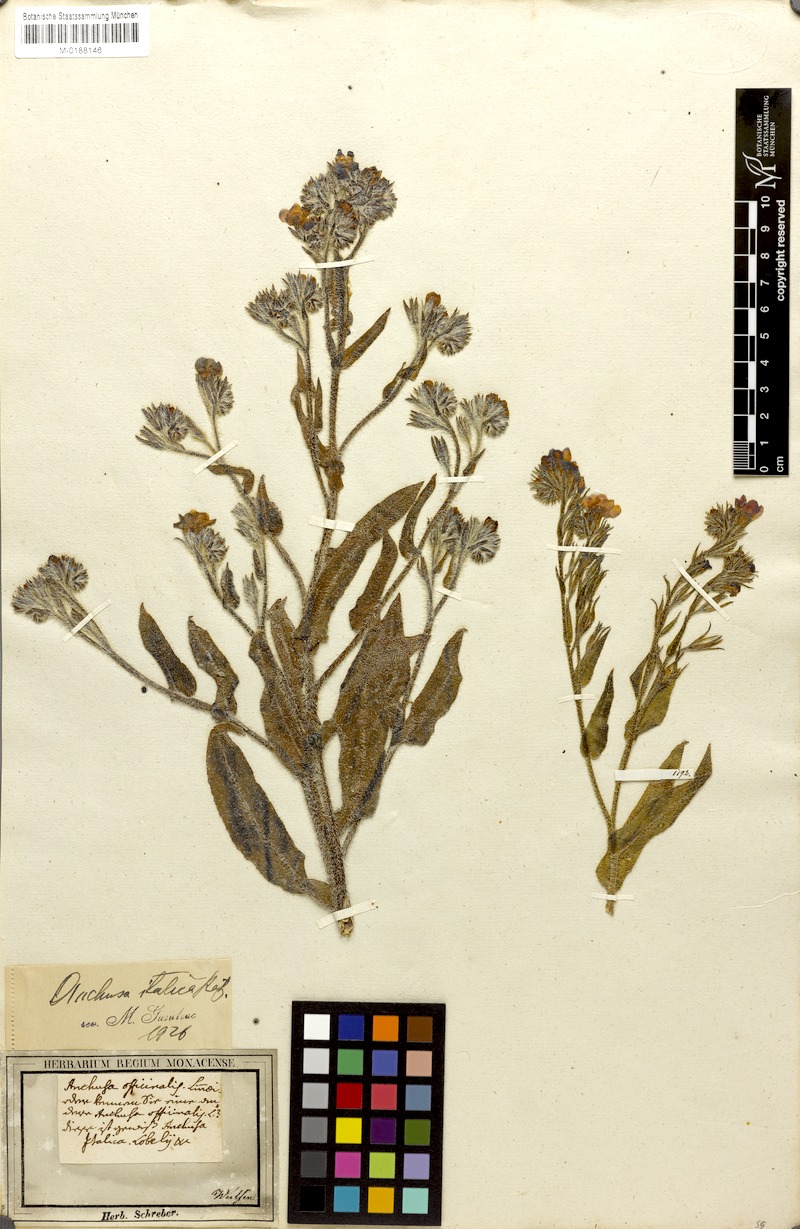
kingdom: Plantae
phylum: Tracheophyta
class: Magnoliopsida
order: Boraginales
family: Boraginaceae
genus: Anchusa
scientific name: Anchusa azurea
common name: Garden anchusa
